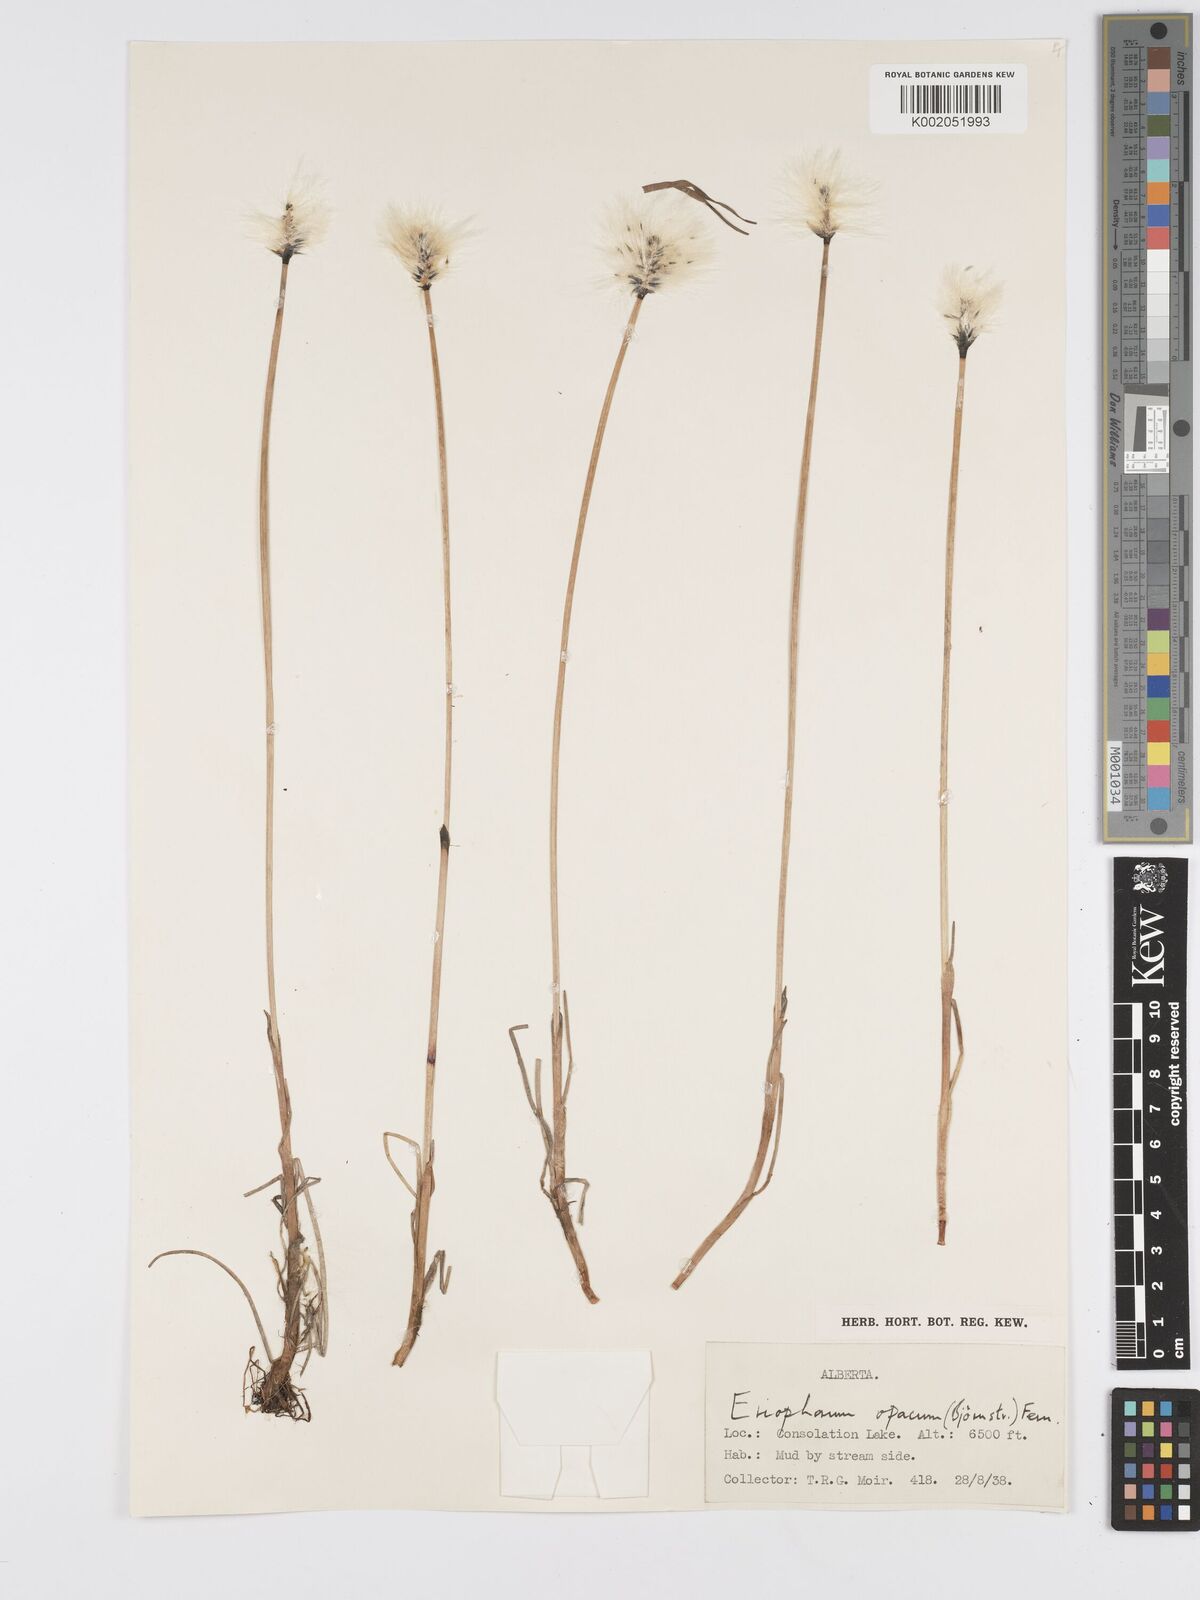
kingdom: Plantae
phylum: Tracheophyta
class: Liliopsida
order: Poales
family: Cyperaceae
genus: Eriophorum
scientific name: Eriophorum brachyantherum
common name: Closed-sheathed cottongrass
